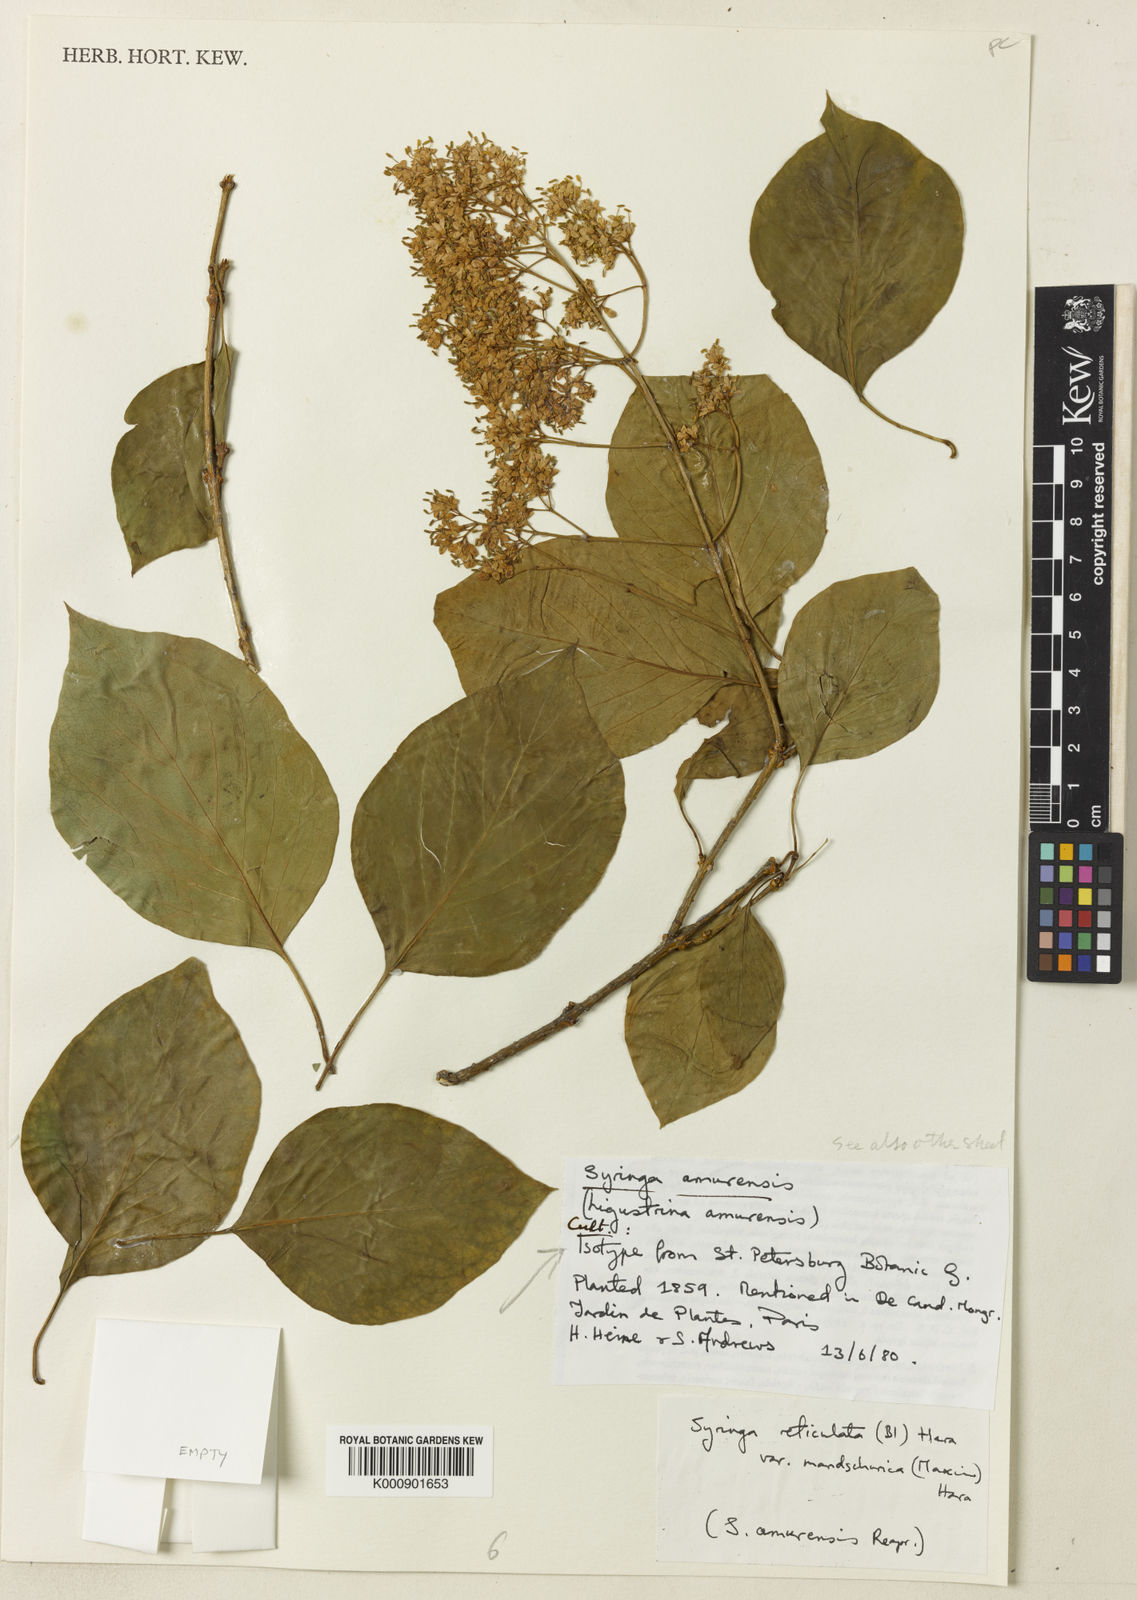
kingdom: Plantae
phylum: Tracheophyta
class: Magnoliopsida
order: Lamiales
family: Oleaceae
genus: Syringa
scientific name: Syringa reticulata
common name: Japanese tree lilac
